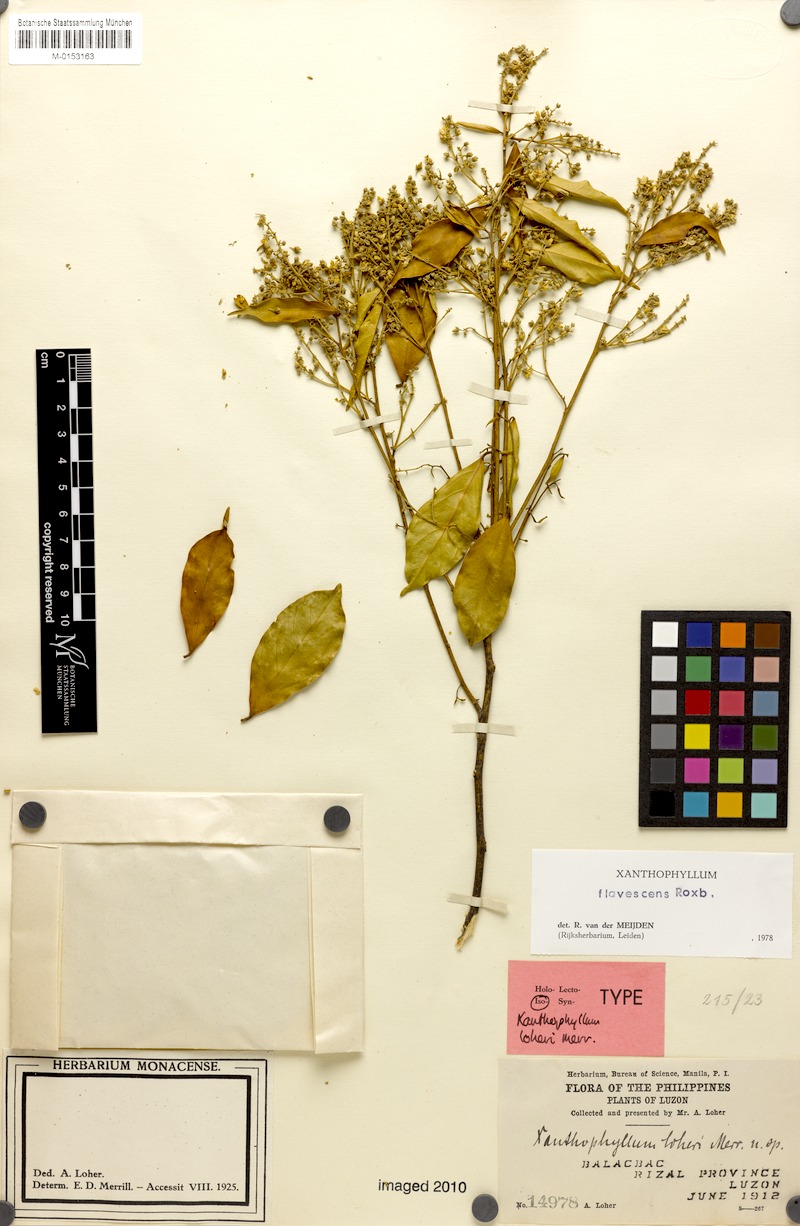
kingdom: Plantae
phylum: Tracheophyta
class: Magnoliopsida
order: Fabales
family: Polygalaceae
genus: Xanthophyllum
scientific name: Xanthophyllum flavescens
